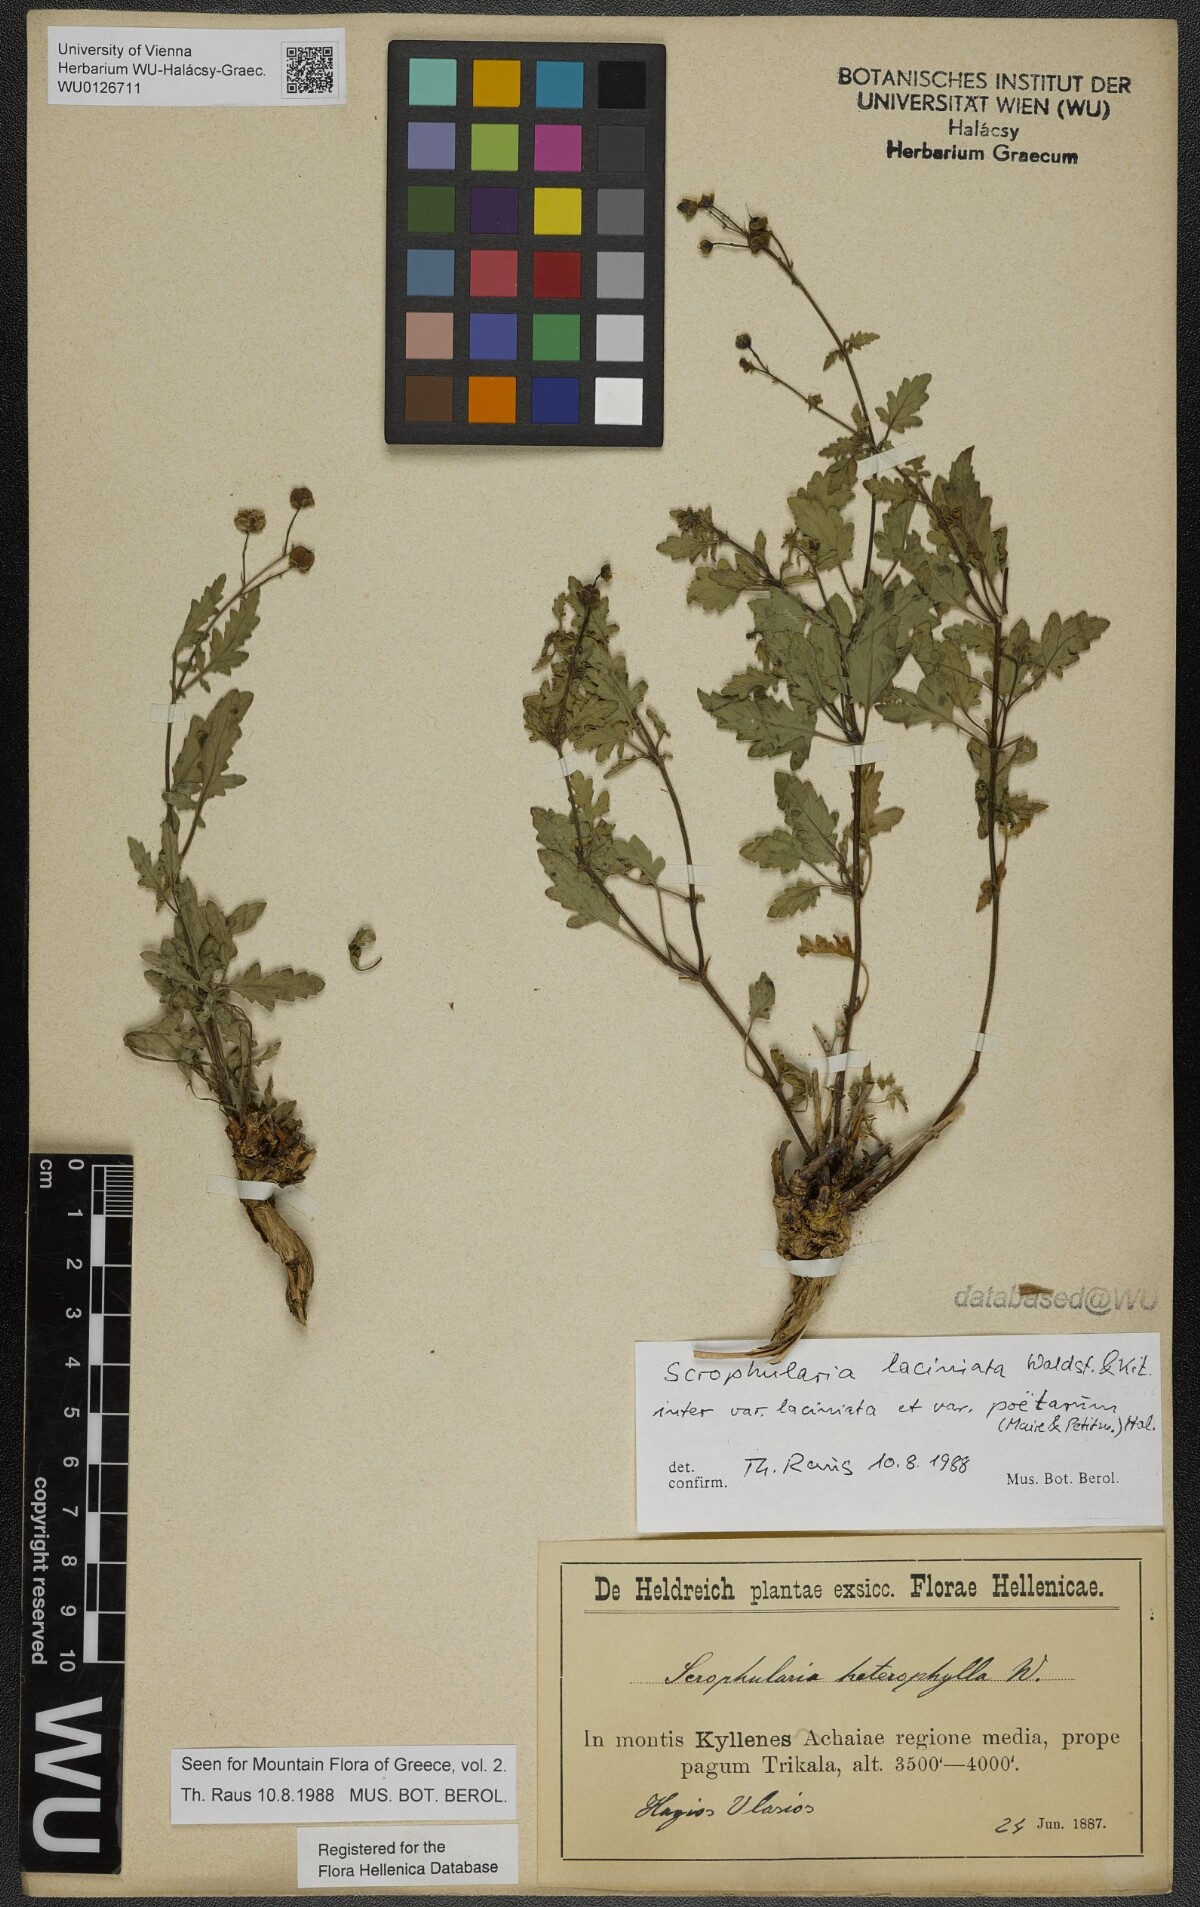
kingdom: Plantae
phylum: Tracheophyta
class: Magnoliopsida
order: Lamiales
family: Scrophulariaceae
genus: Scrophularia
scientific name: Scrophularia laciniata
